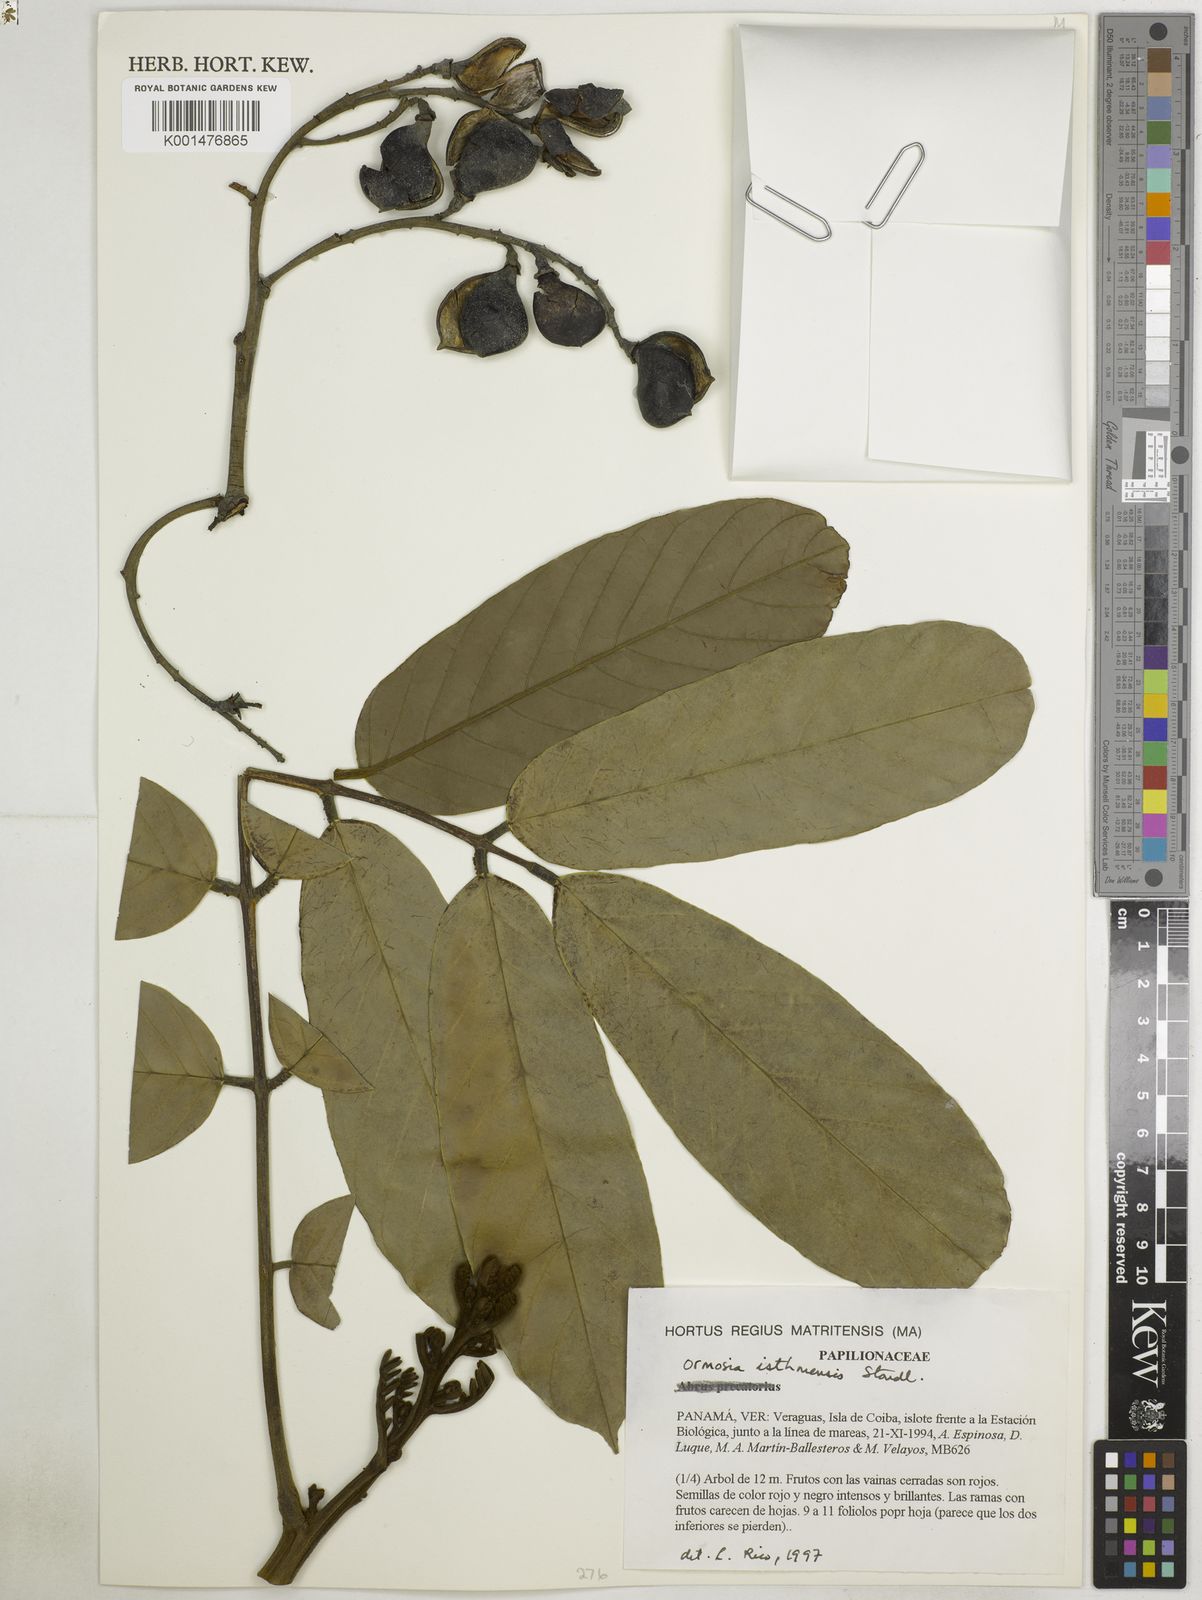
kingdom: Plantae
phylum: Tracheophyta
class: Magnoliopsida
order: Fabales
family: Fabaceae
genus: Ormosia
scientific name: Ormosia isthmensis
